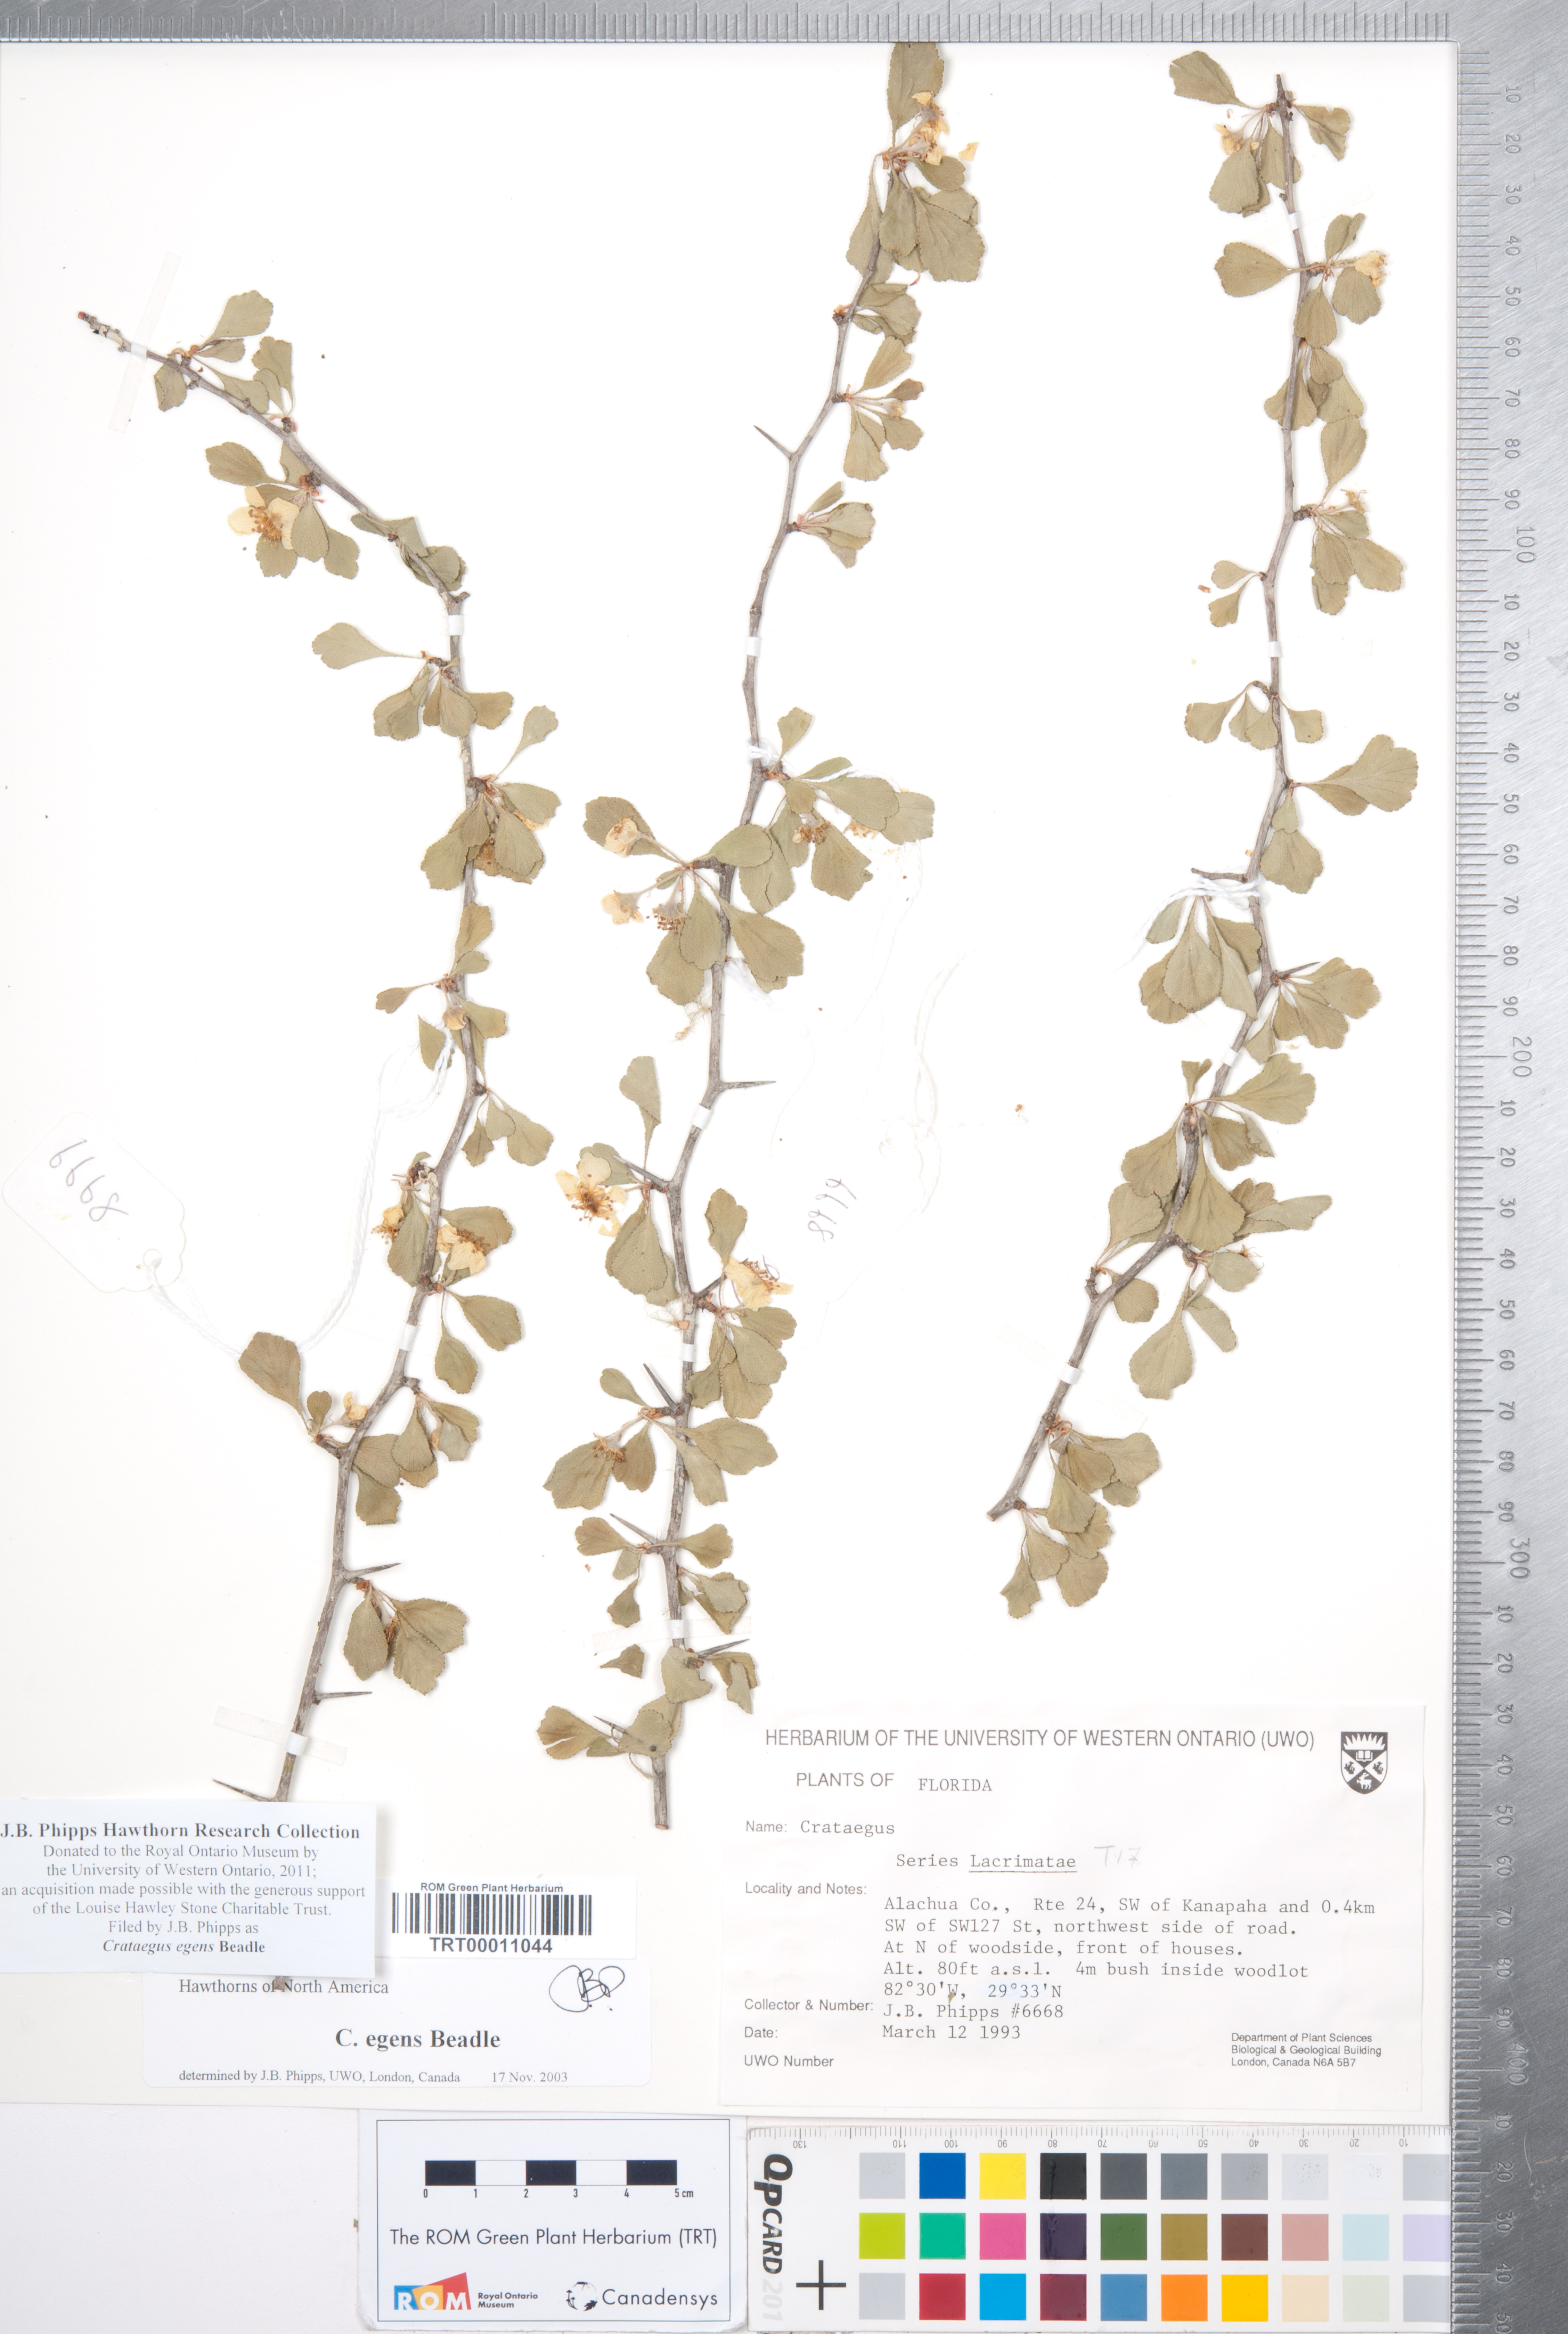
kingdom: Plantae
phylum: Tracheophyta
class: Magnoliopsida
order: Rosales
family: Rosaceae
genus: Crataegus
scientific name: Crataegus senta
